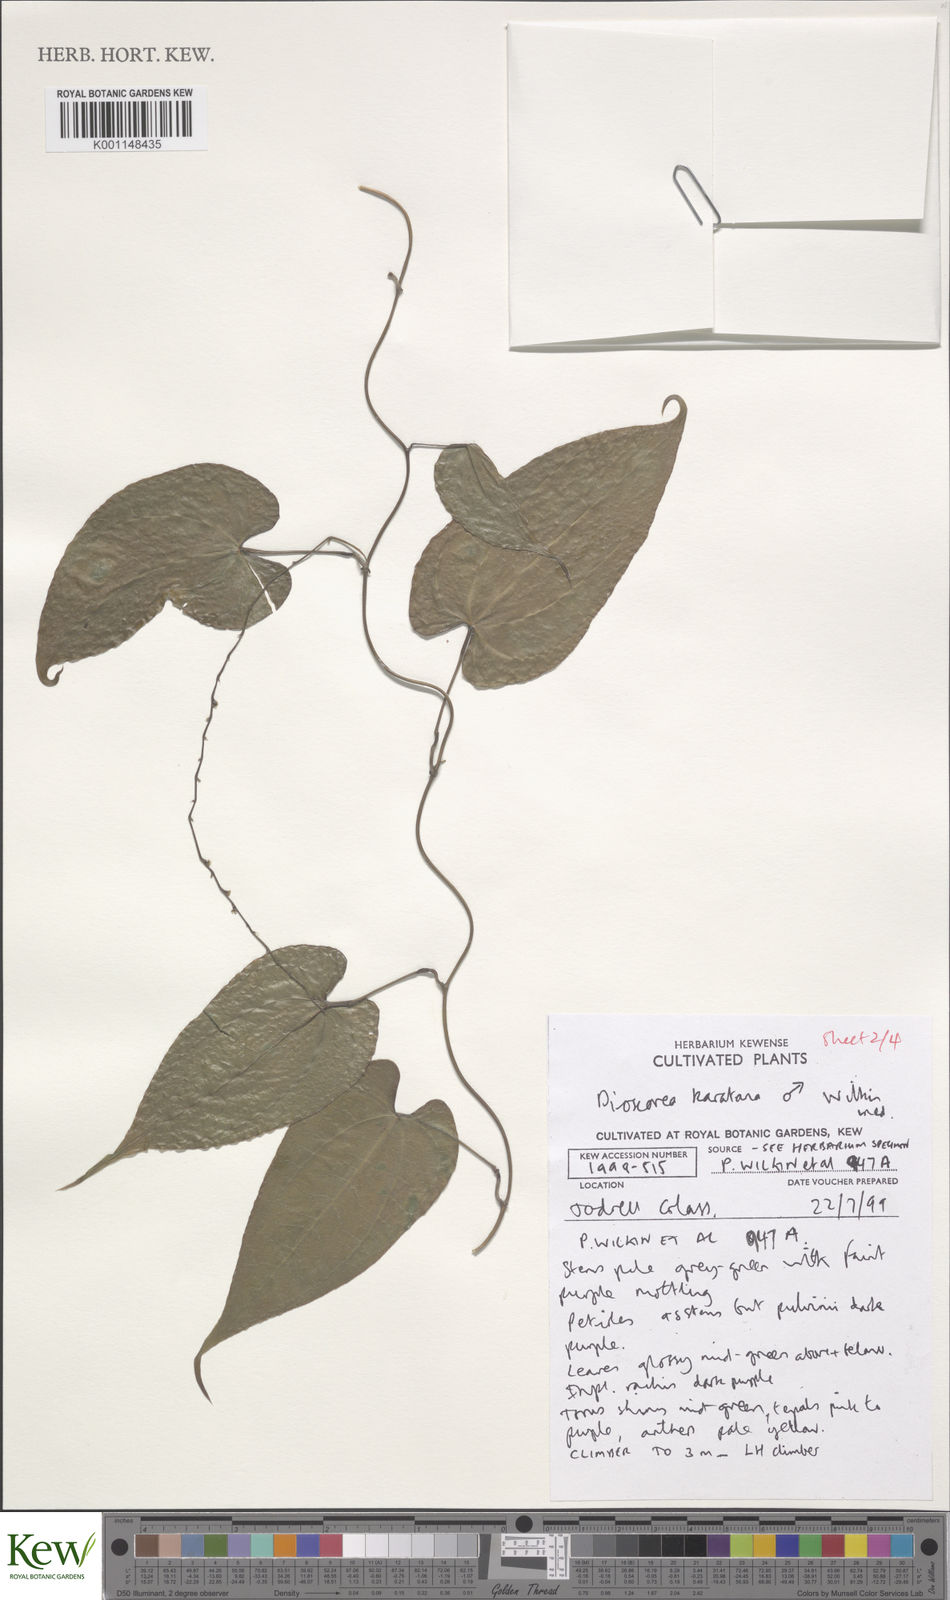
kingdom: Plantae
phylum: Tracheophyta
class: Liliopsida
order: Dioscoreales
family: Dioscoreaceae
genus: Dioscorea
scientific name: Dioscorea madecassa
